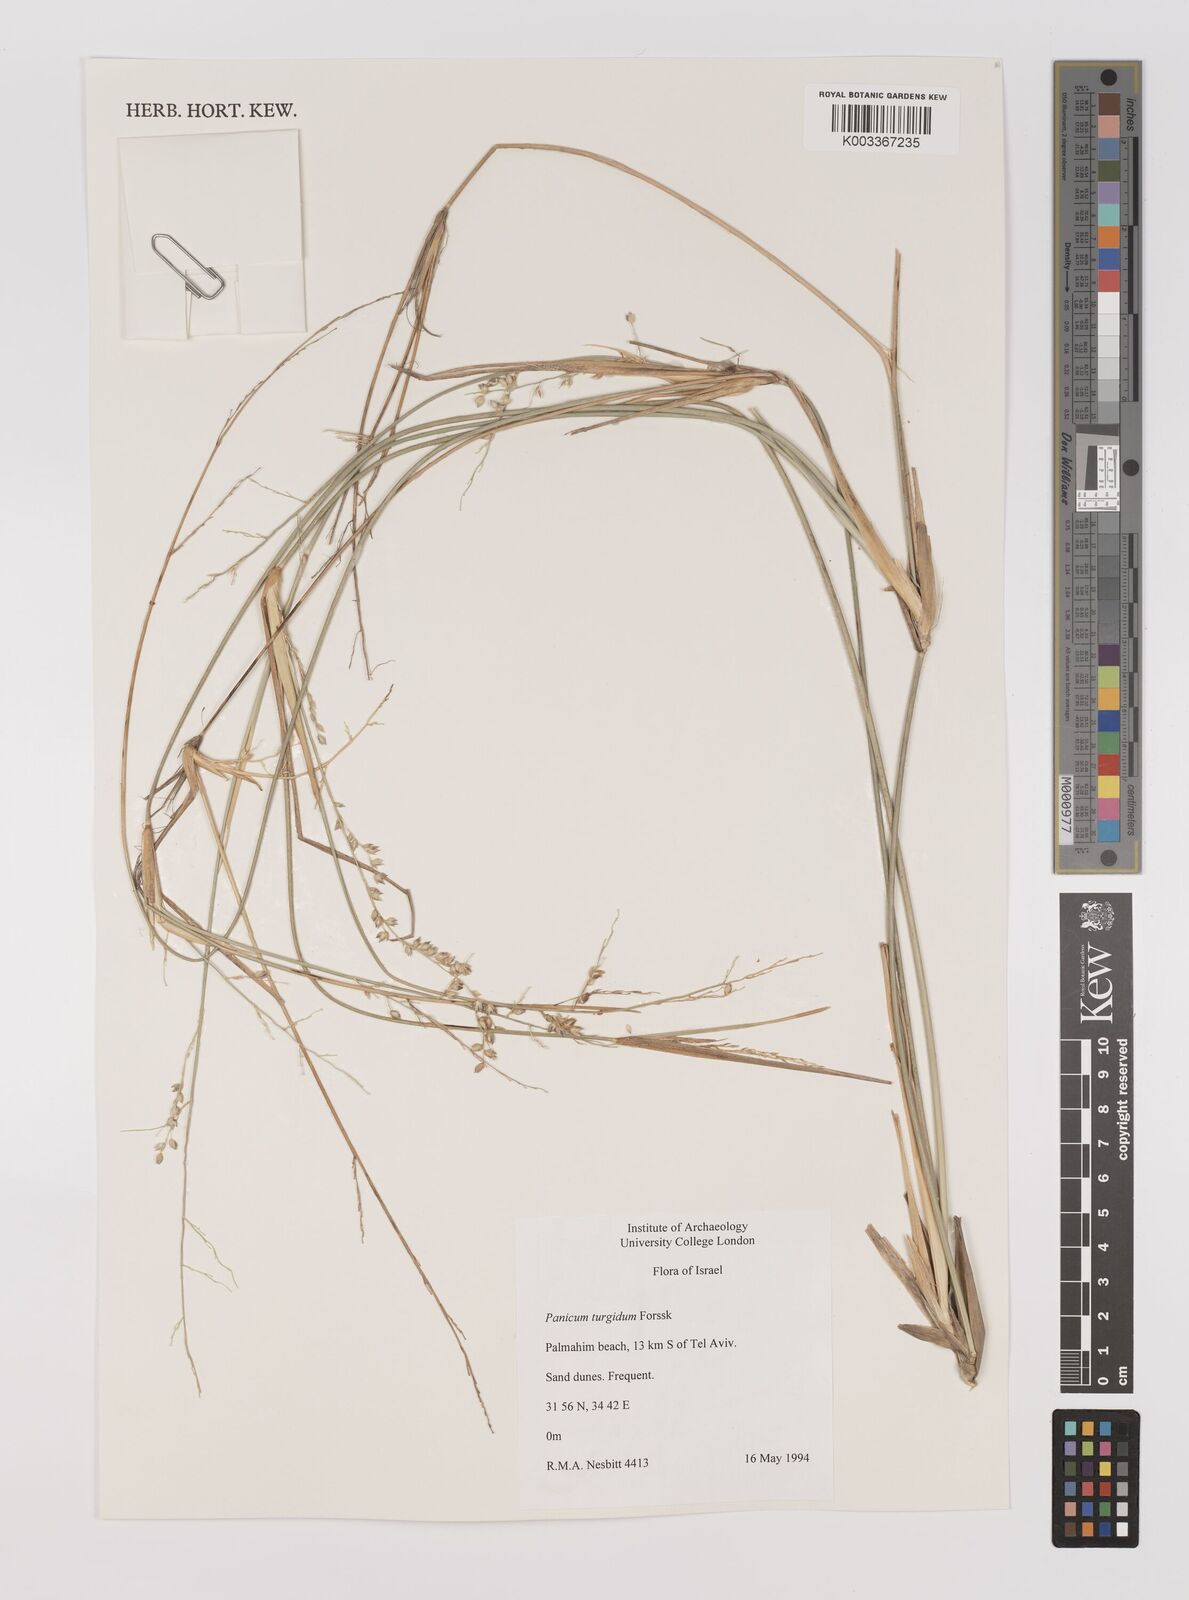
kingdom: Plantae
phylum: Tracheophyta
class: Liliopsida
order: Poales
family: Poaceae
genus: Panicum
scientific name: Panicum turgidum
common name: Desert grass
